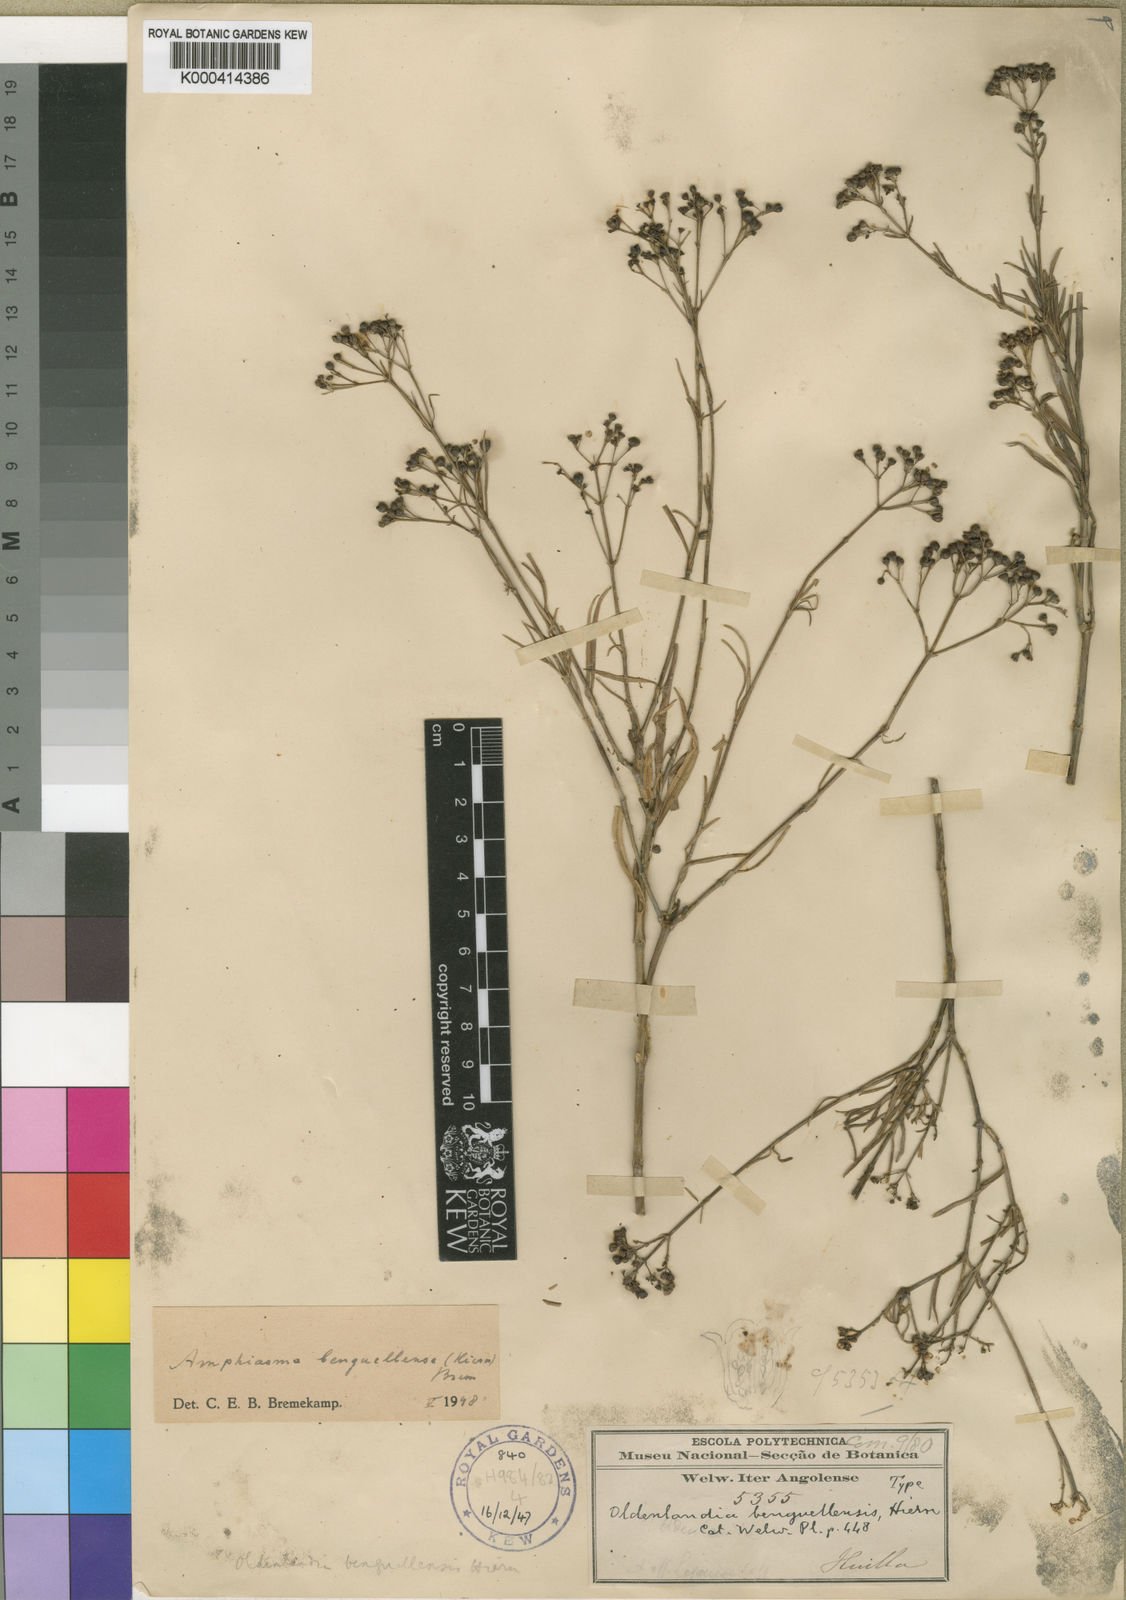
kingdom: Plantae
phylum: Tracheophyta
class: Magnoliopsida
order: Gentianales
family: Rubiaceae
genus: Amphiasma
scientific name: Amphiasma benguellense
